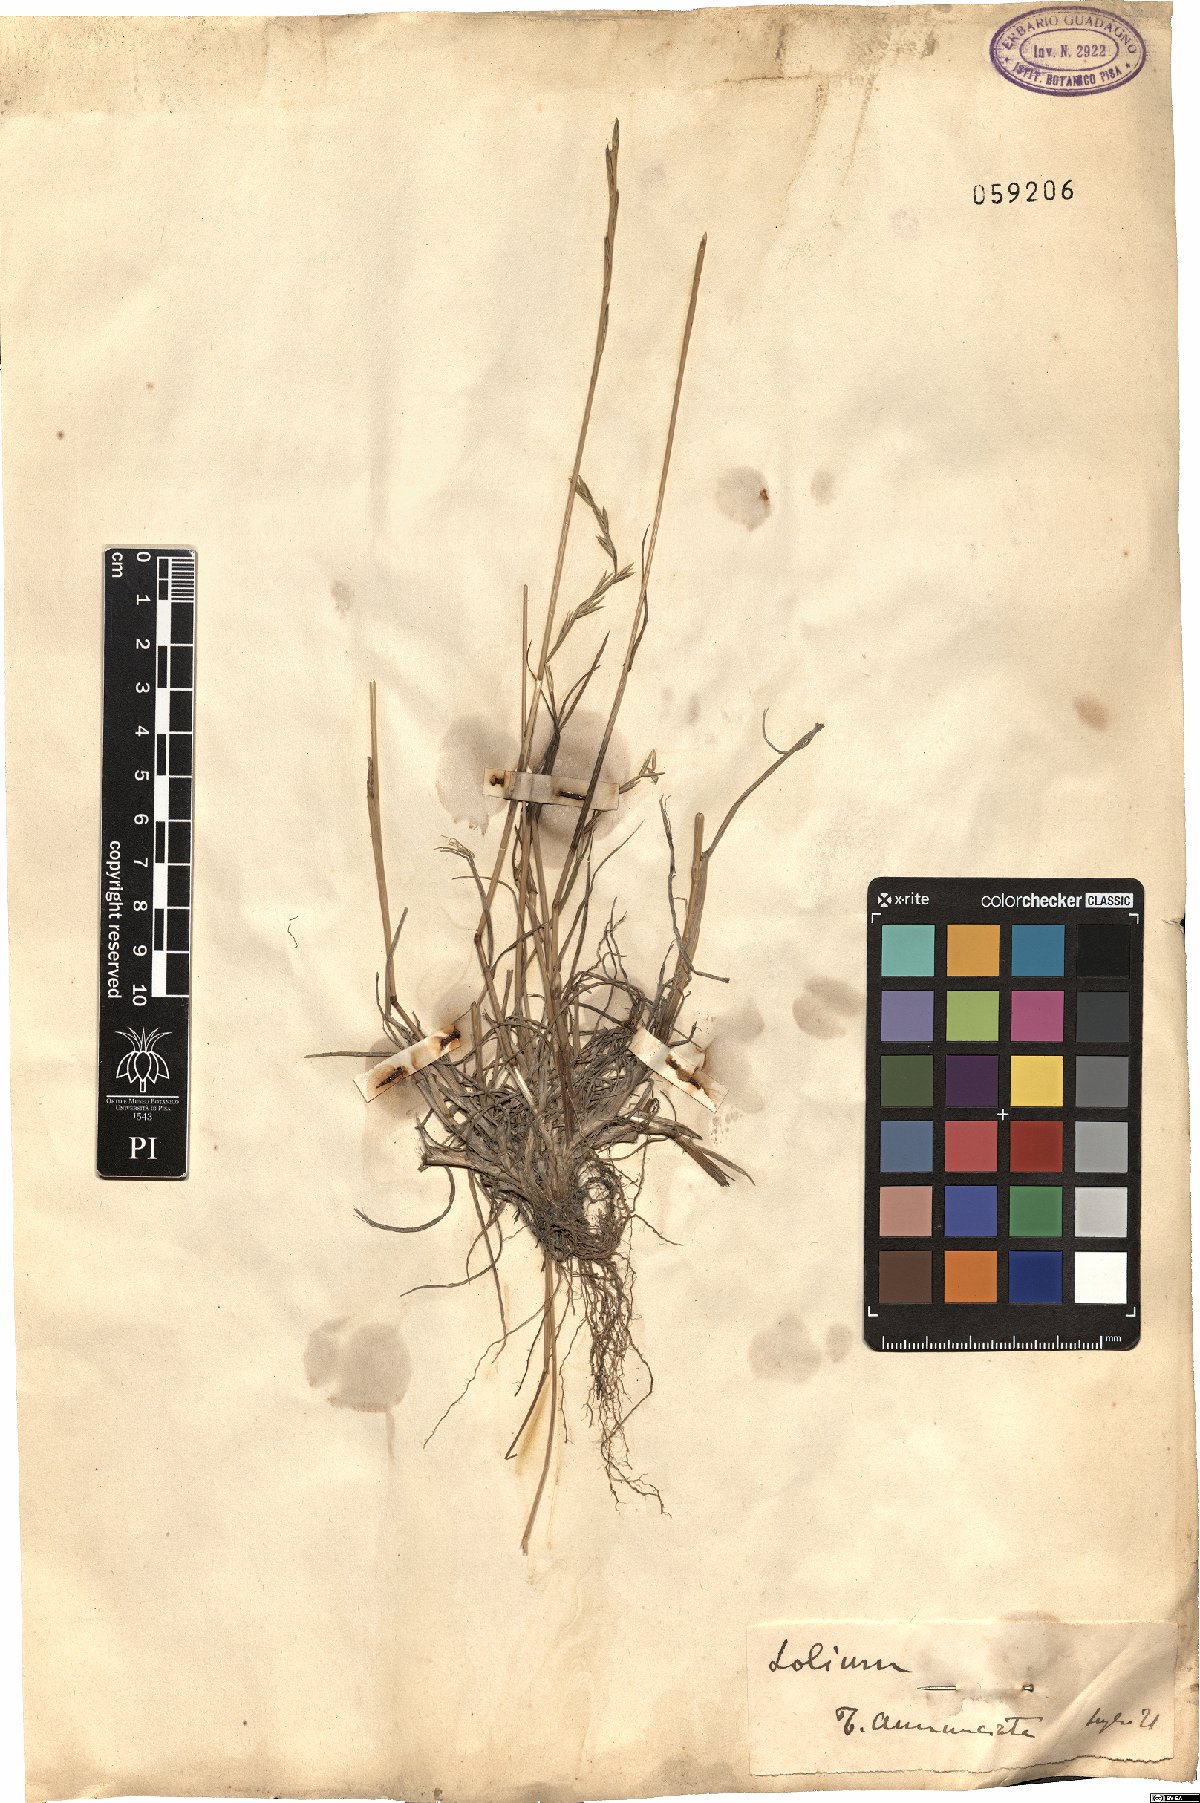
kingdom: Plantae
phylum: Tracheophyta
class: Liliopsida
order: Poales
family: Poaceae
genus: Lolium
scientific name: Lolium
